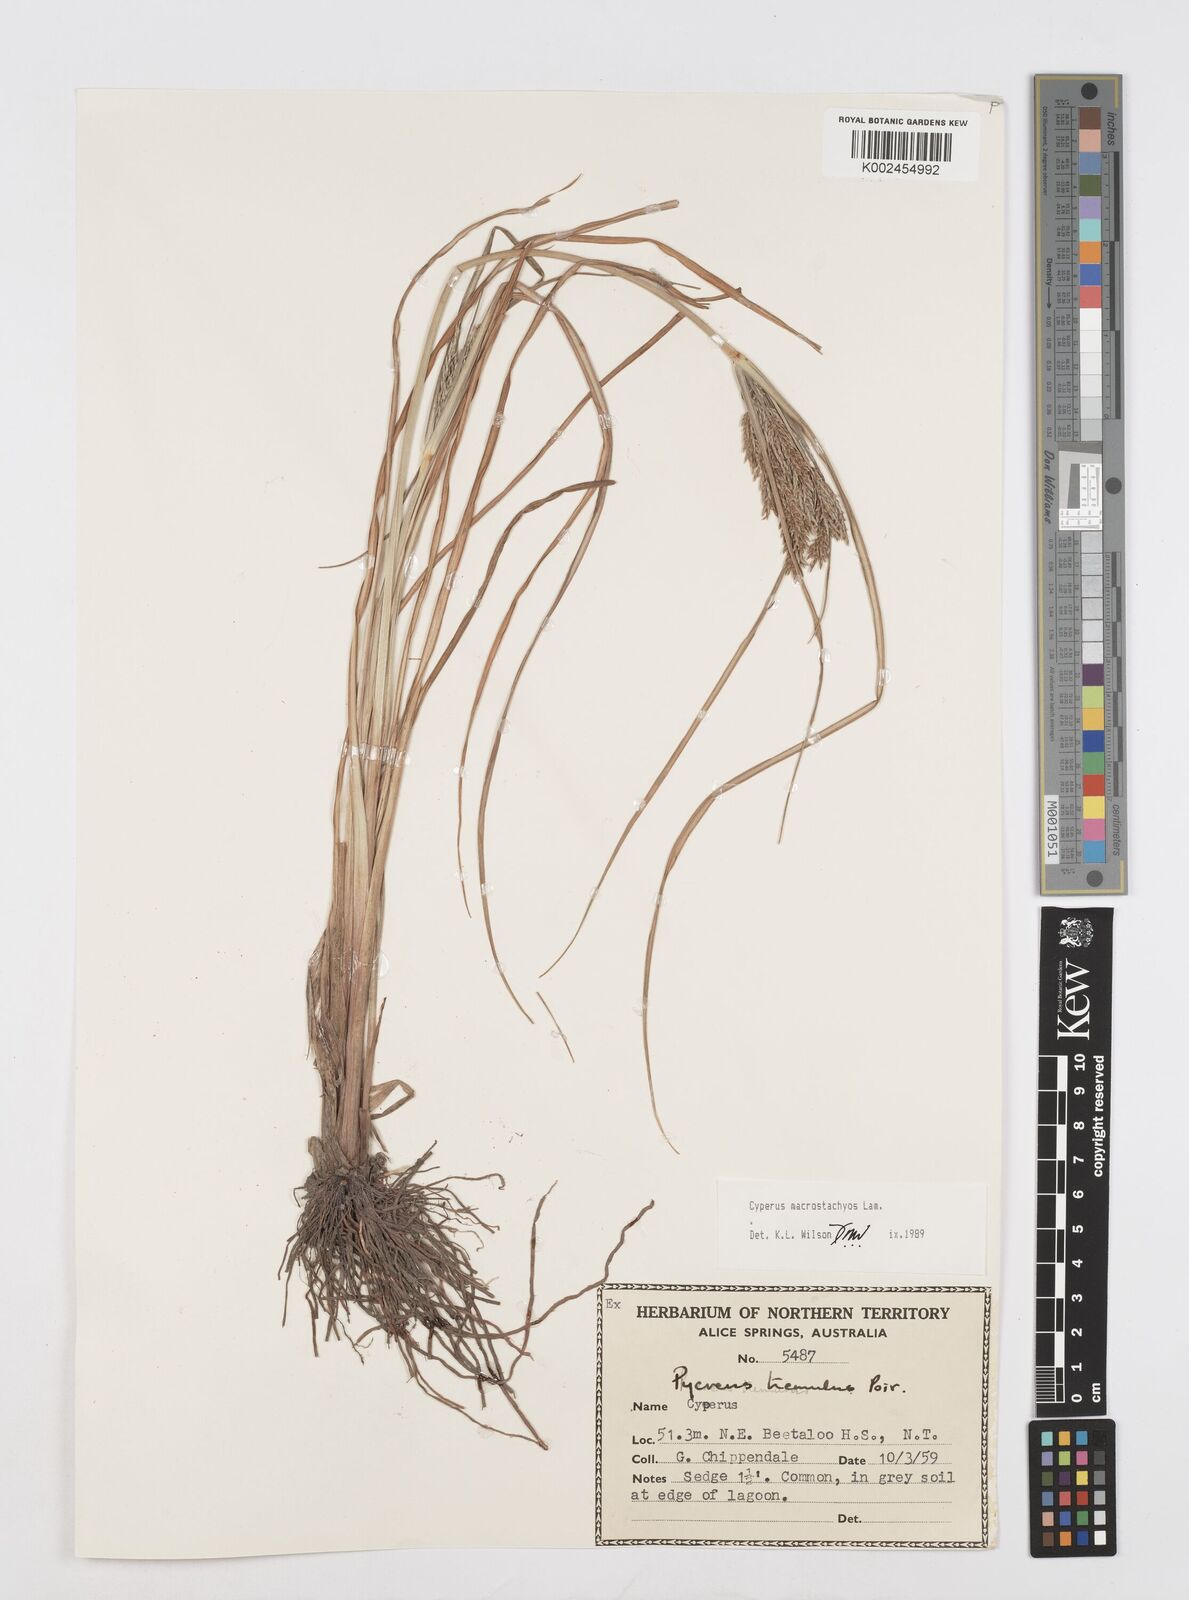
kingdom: Plantae
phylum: Tracheophyta
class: Liliopsida
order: Poales
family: Cyperaceae
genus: Cyperus
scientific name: Cyperus macrostachyos
